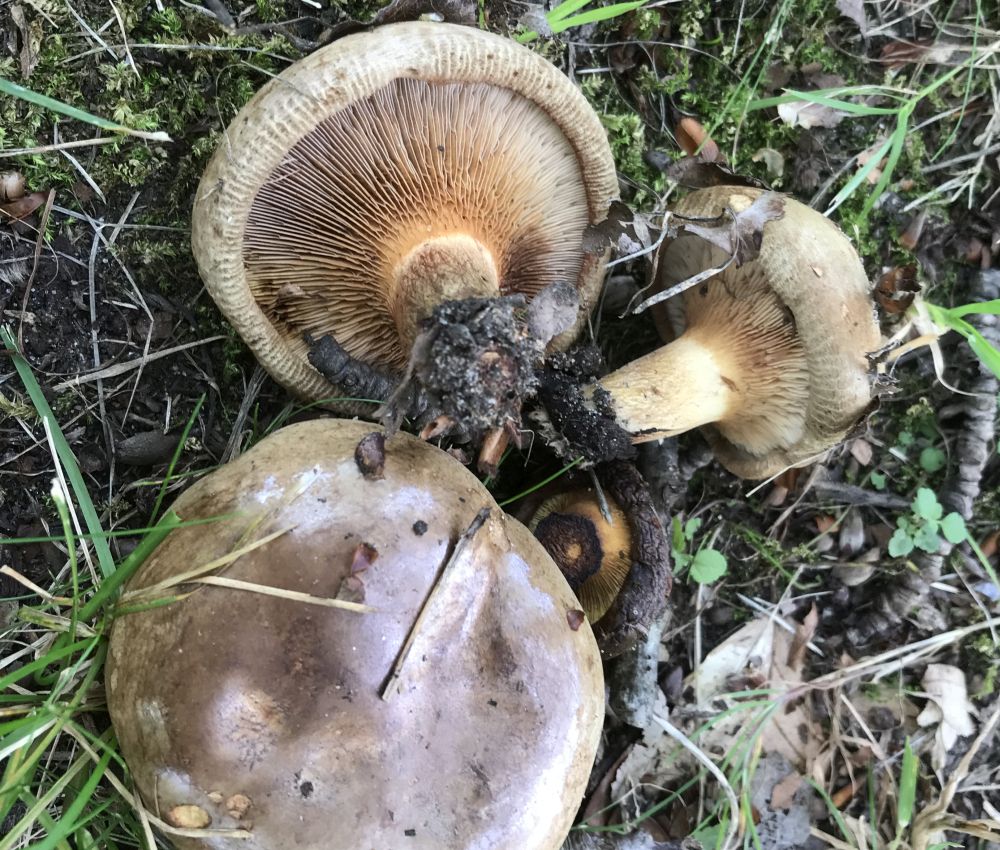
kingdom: Fungi
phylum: Basidiomycota
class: Agaricomycetes
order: Boletales
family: Paxillaceae
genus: Paxillus
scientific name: Paxillus
